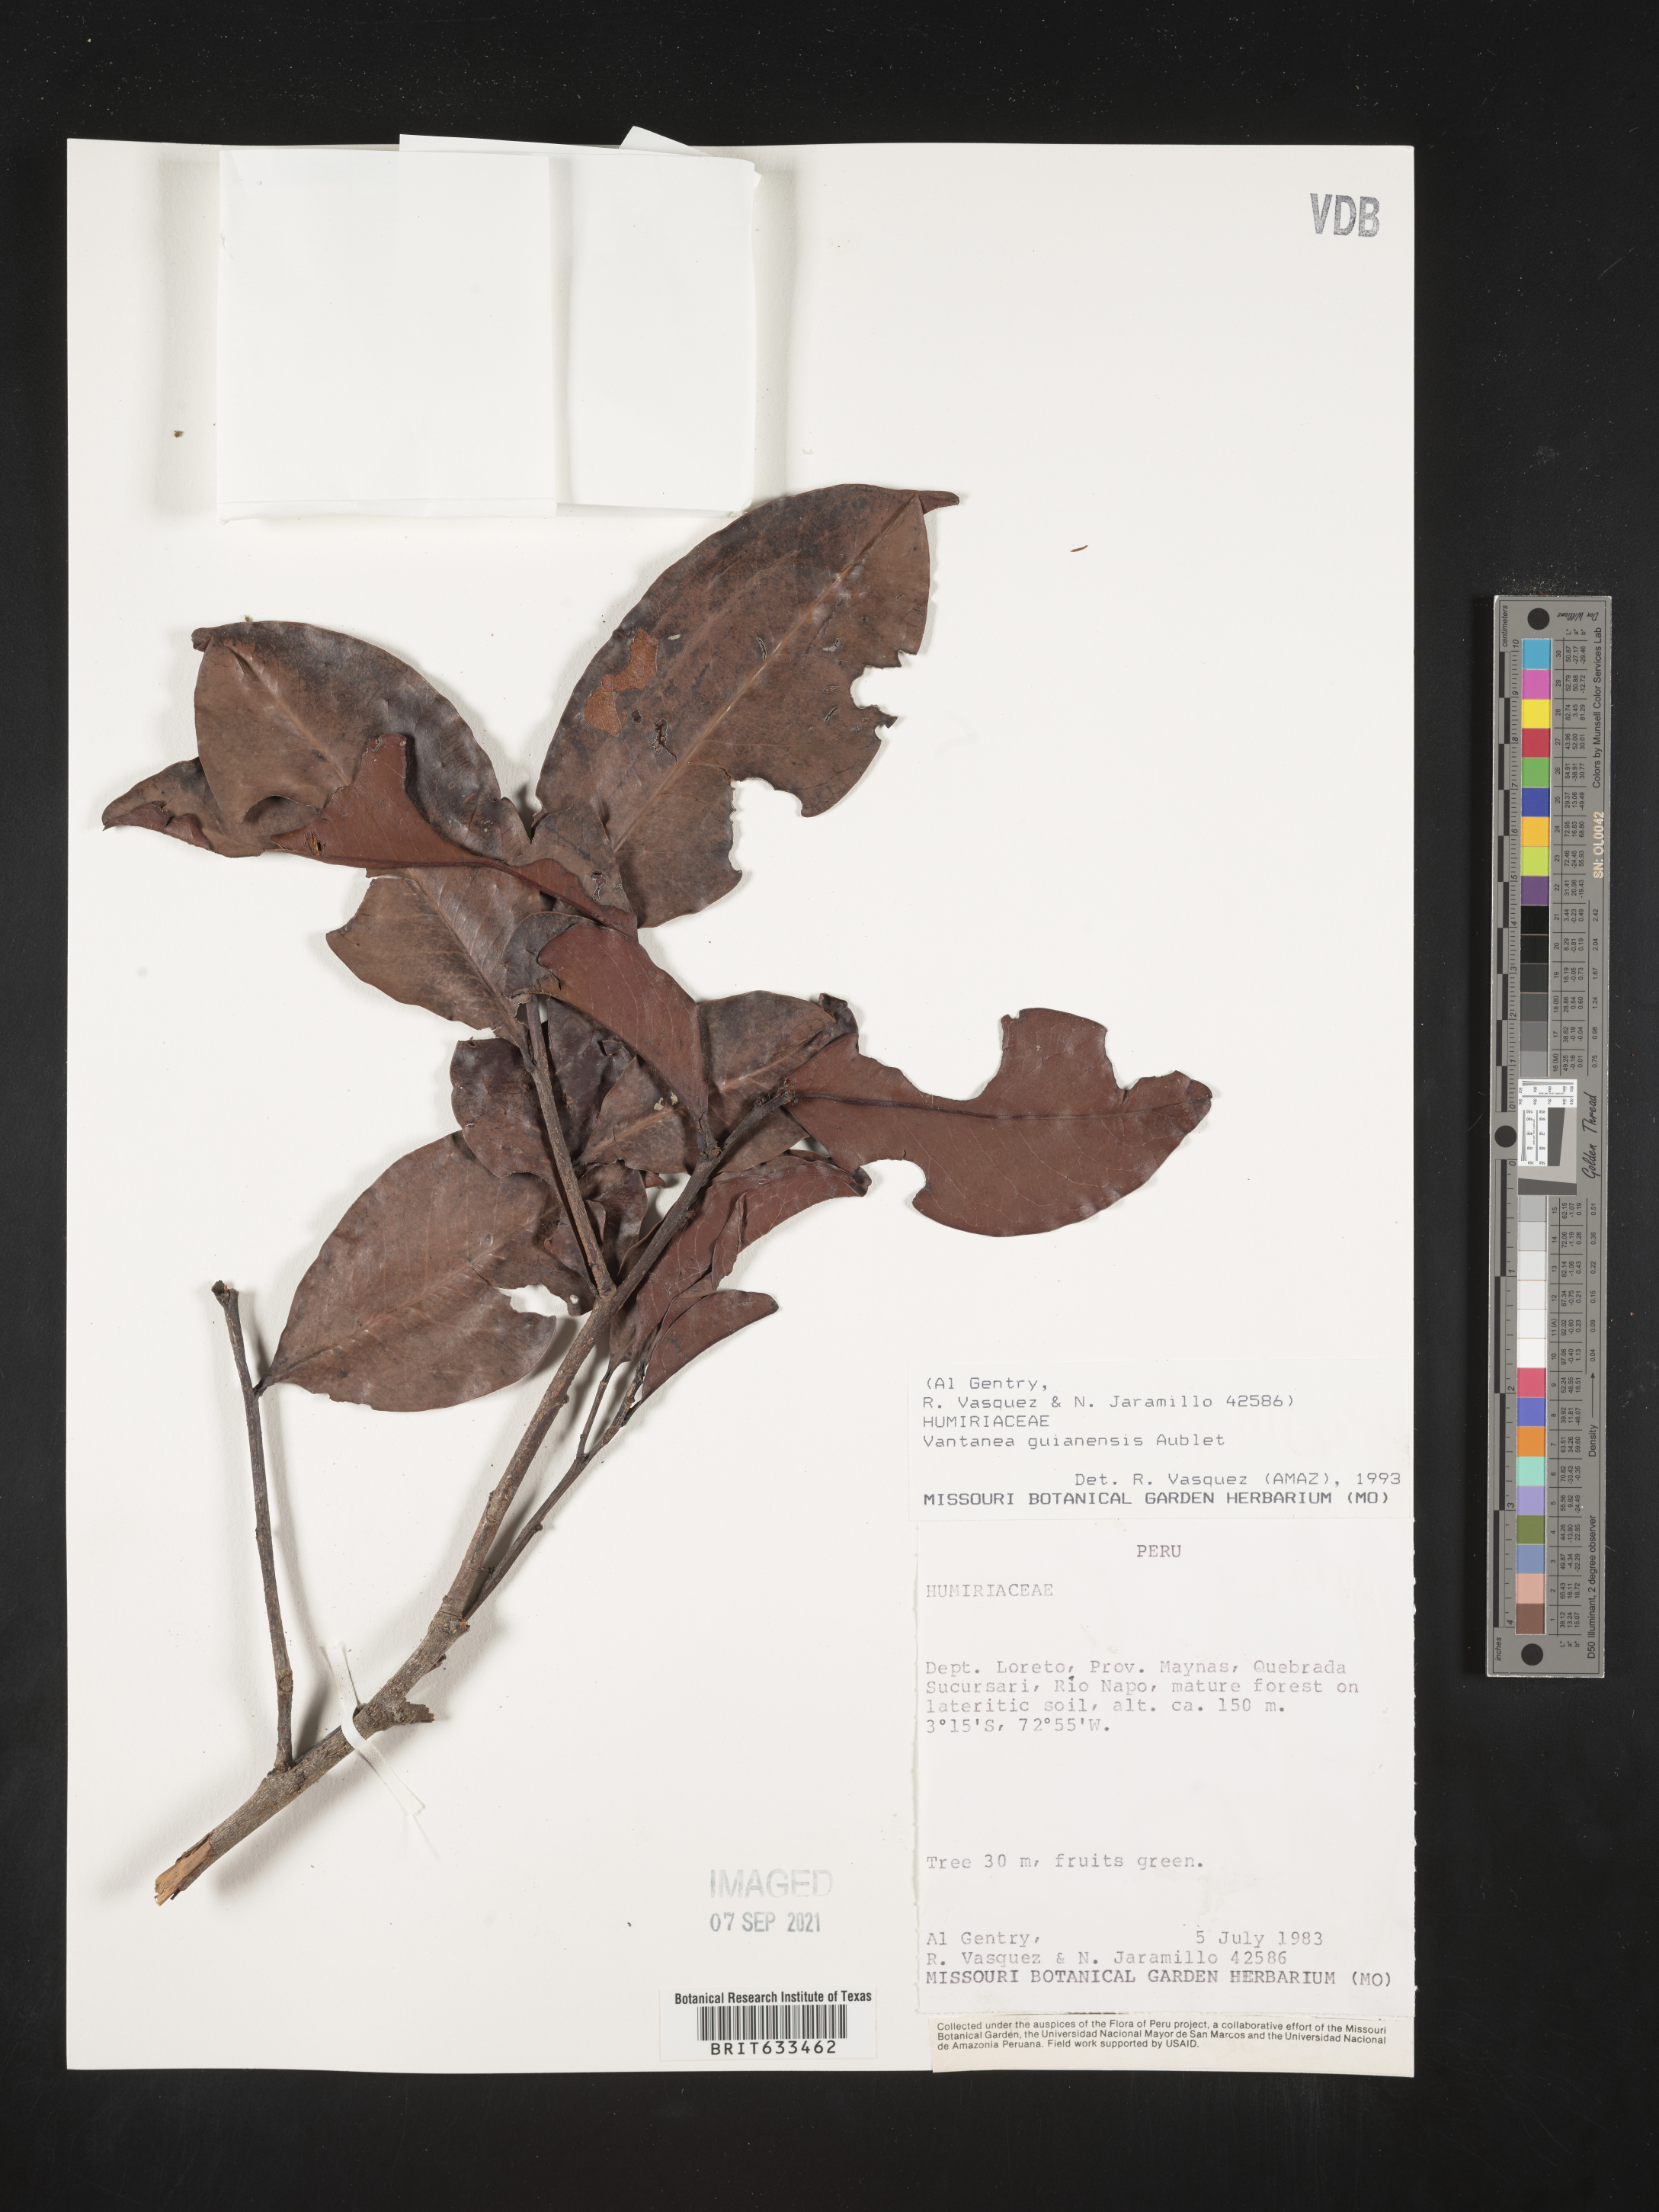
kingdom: Plantae
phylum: Tracheophyta
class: Magnoliopsida
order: Malpighiales
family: Humiriaceae
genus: Vantanea
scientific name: Vantanea
